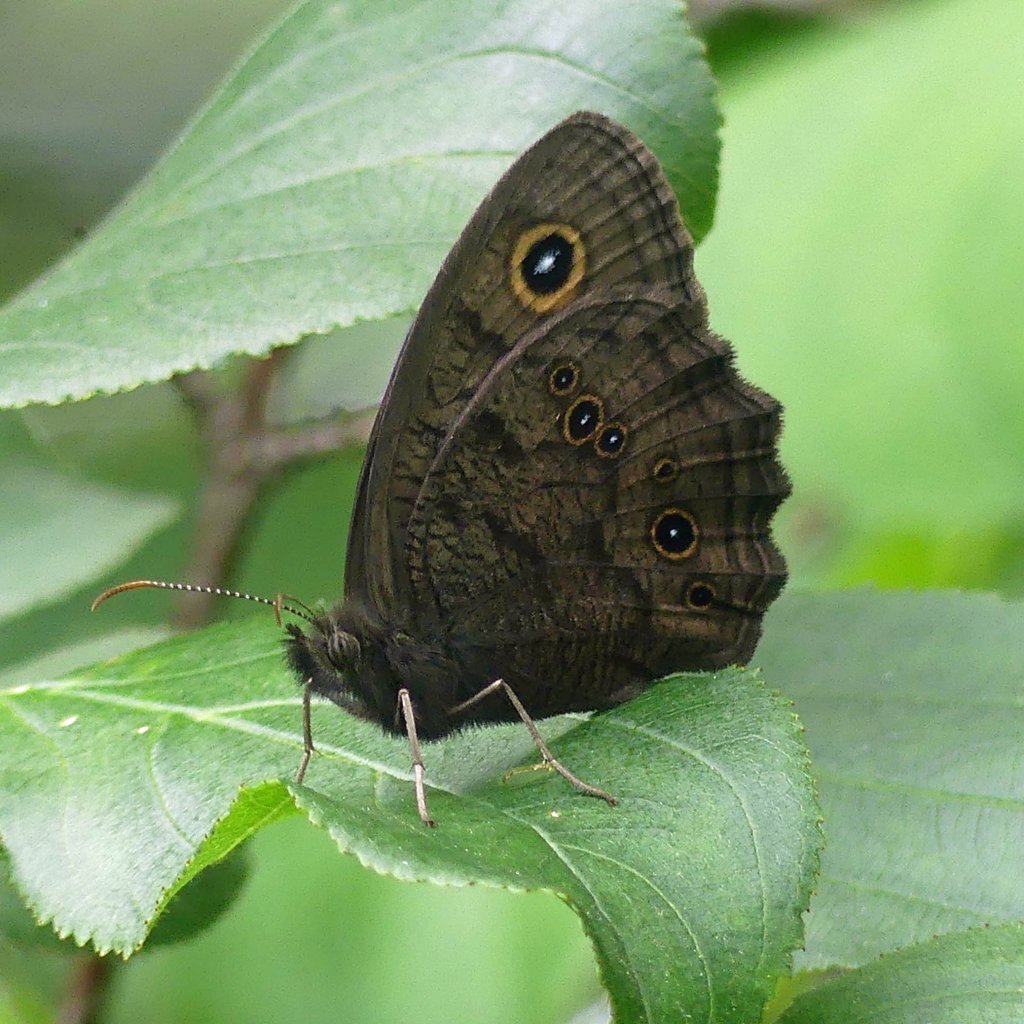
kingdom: Animalia
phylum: Arthropoda
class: Insecta
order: Lepidoptera
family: Nymphalidae
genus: Cercyonis
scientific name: Cercyonis pegala
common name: Common Wood-Nymph
